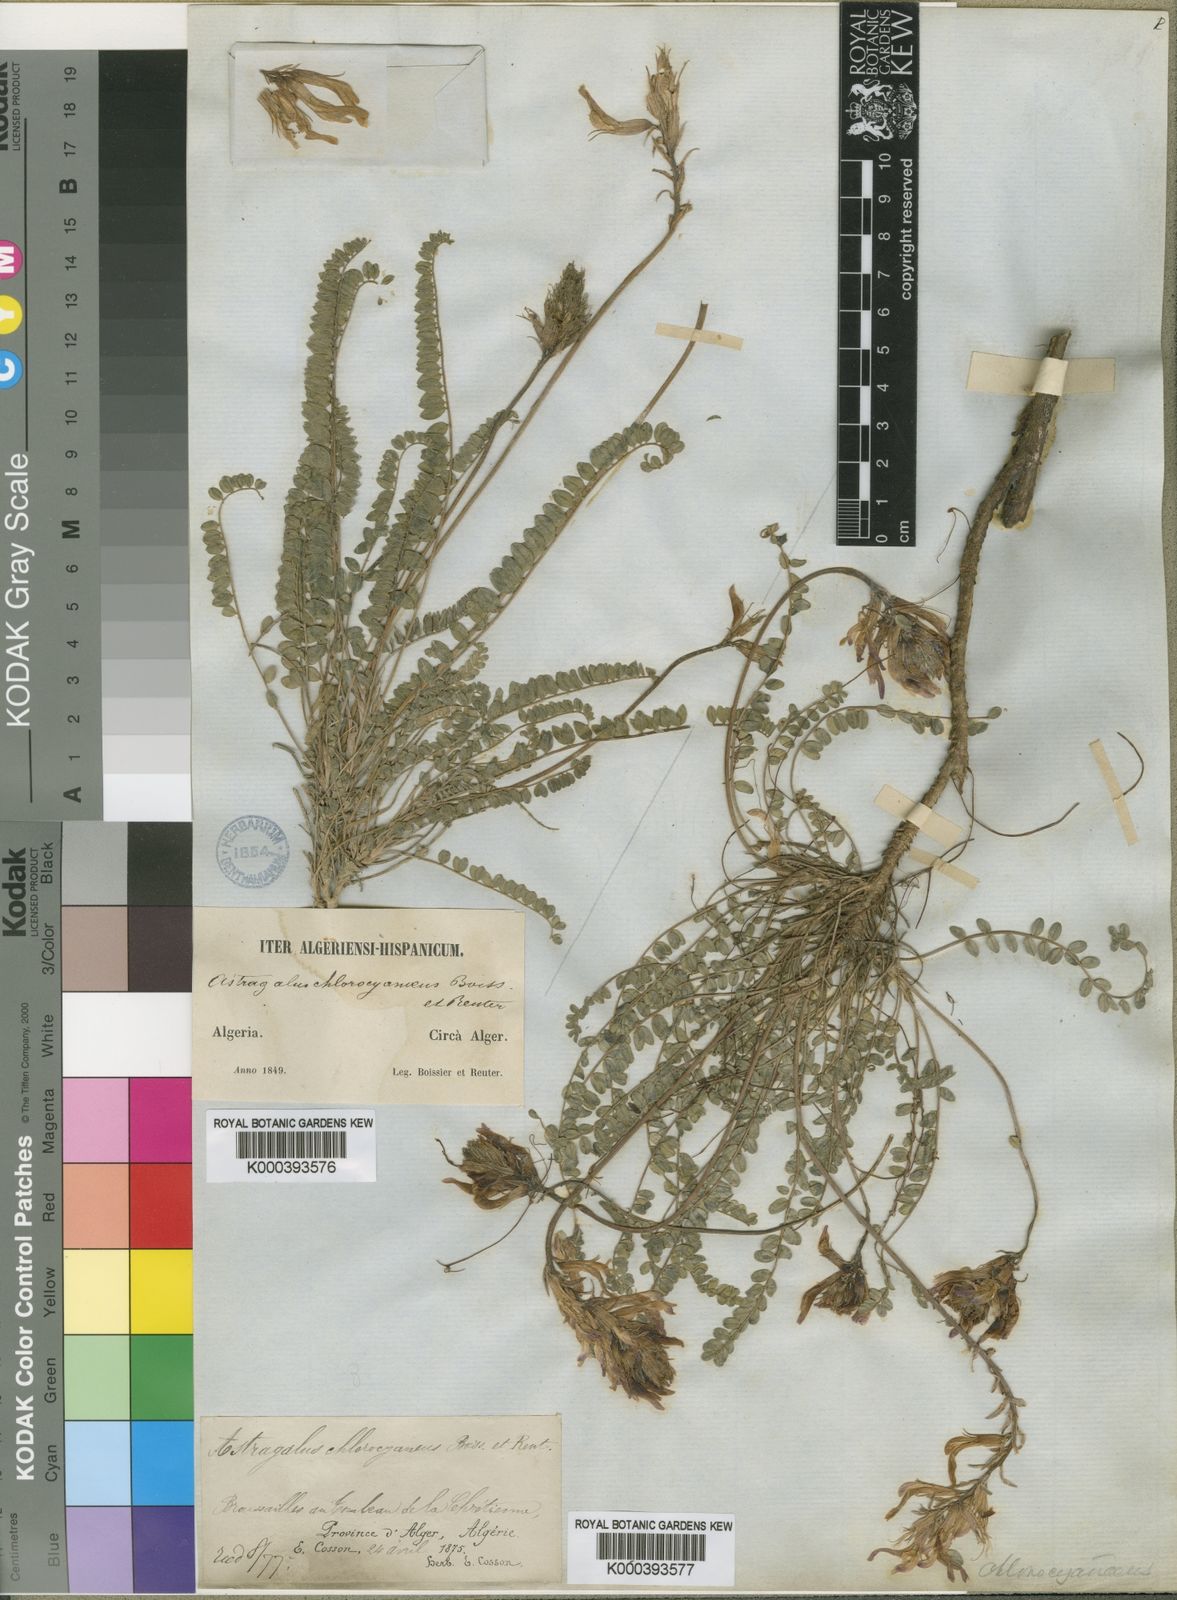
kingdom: Plantae
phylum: Tracheophyta
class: Magnoliopsida
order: Fabales
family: Fabaceae
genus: Astragalus
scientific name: Astragalus monspessulanus
